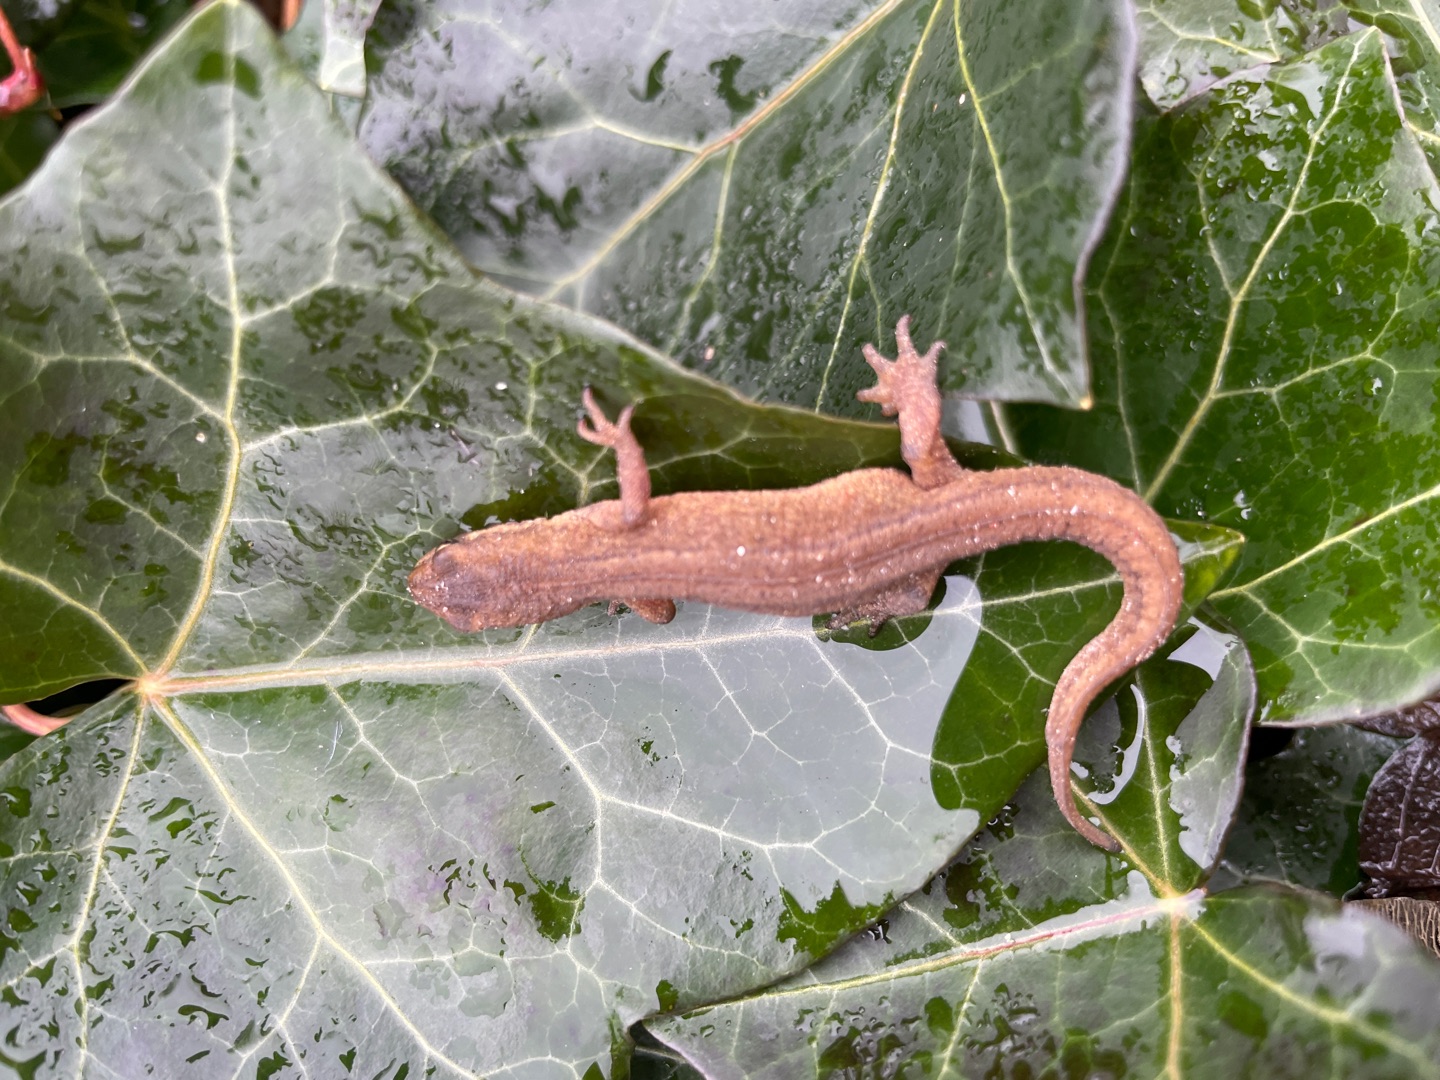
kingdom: Animalia
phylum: Chordata
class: Amphibia
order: Caudata
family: Salamandridae
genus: Lissotriton
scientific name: Lissotriton vulgaris
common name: Lille vandsalamander
